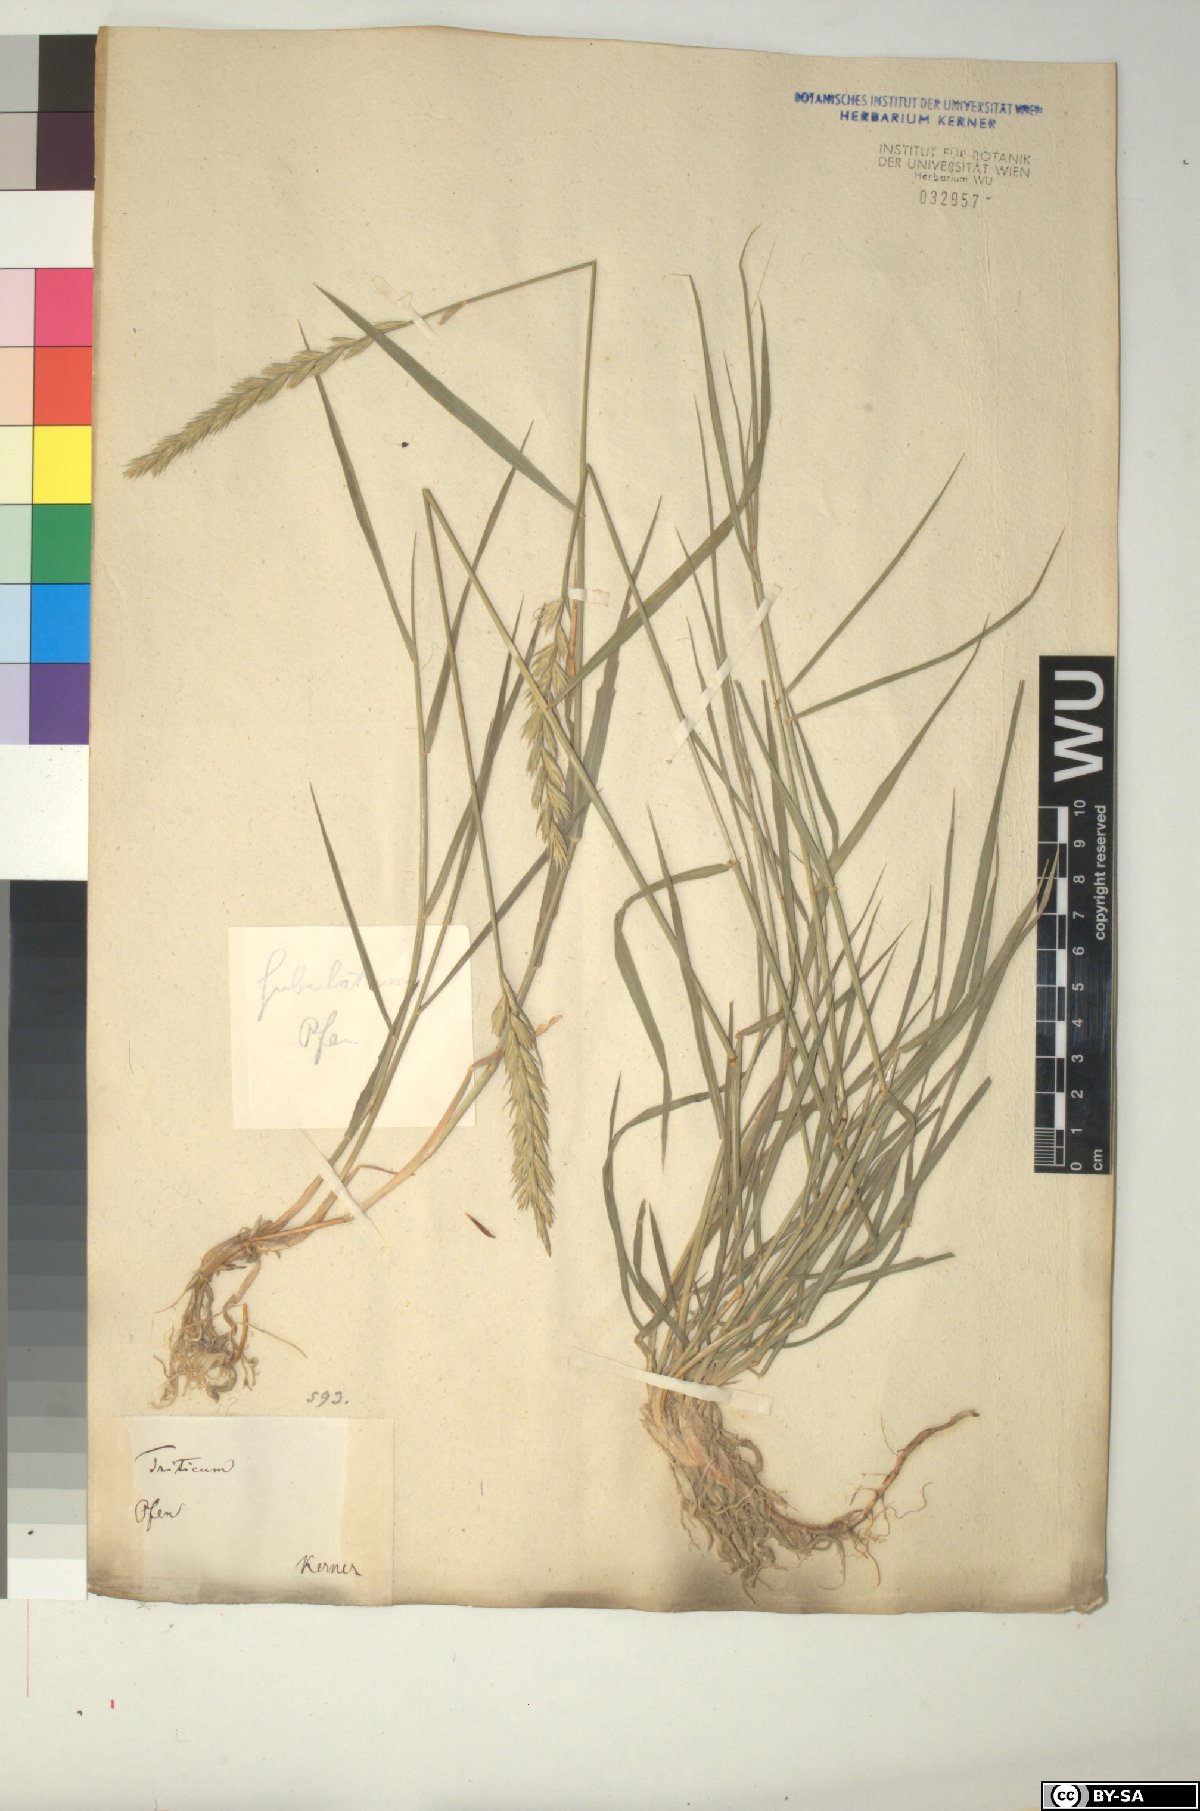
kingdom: Plantae
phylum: Tracheophyta
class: Liliopsida
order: Poales
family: Poaceae
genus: Elymus
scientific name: Elymus repens
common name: Quackgrass
